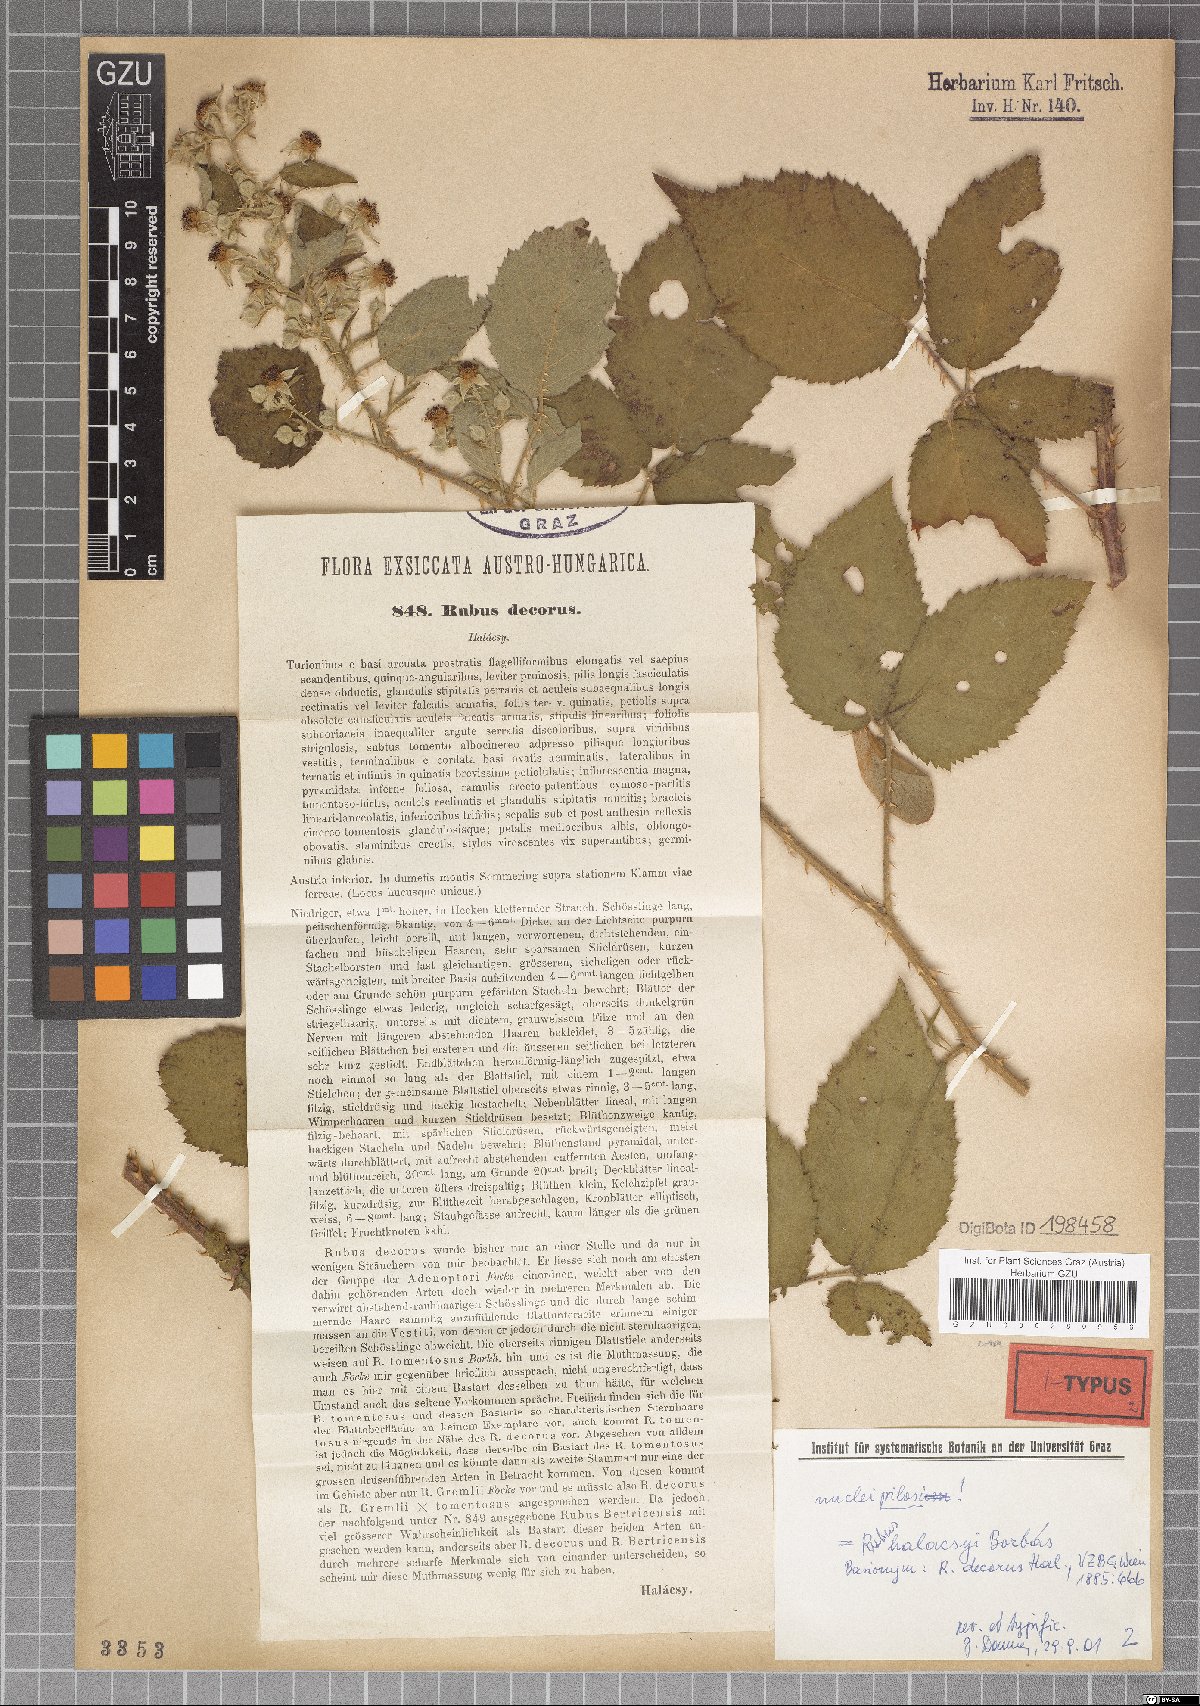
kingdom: Plantae
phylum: Tracheophyta
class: Magnoliopsida
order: Rosales
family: Rosaceae
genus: Rubus
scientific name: Rubus decorus
